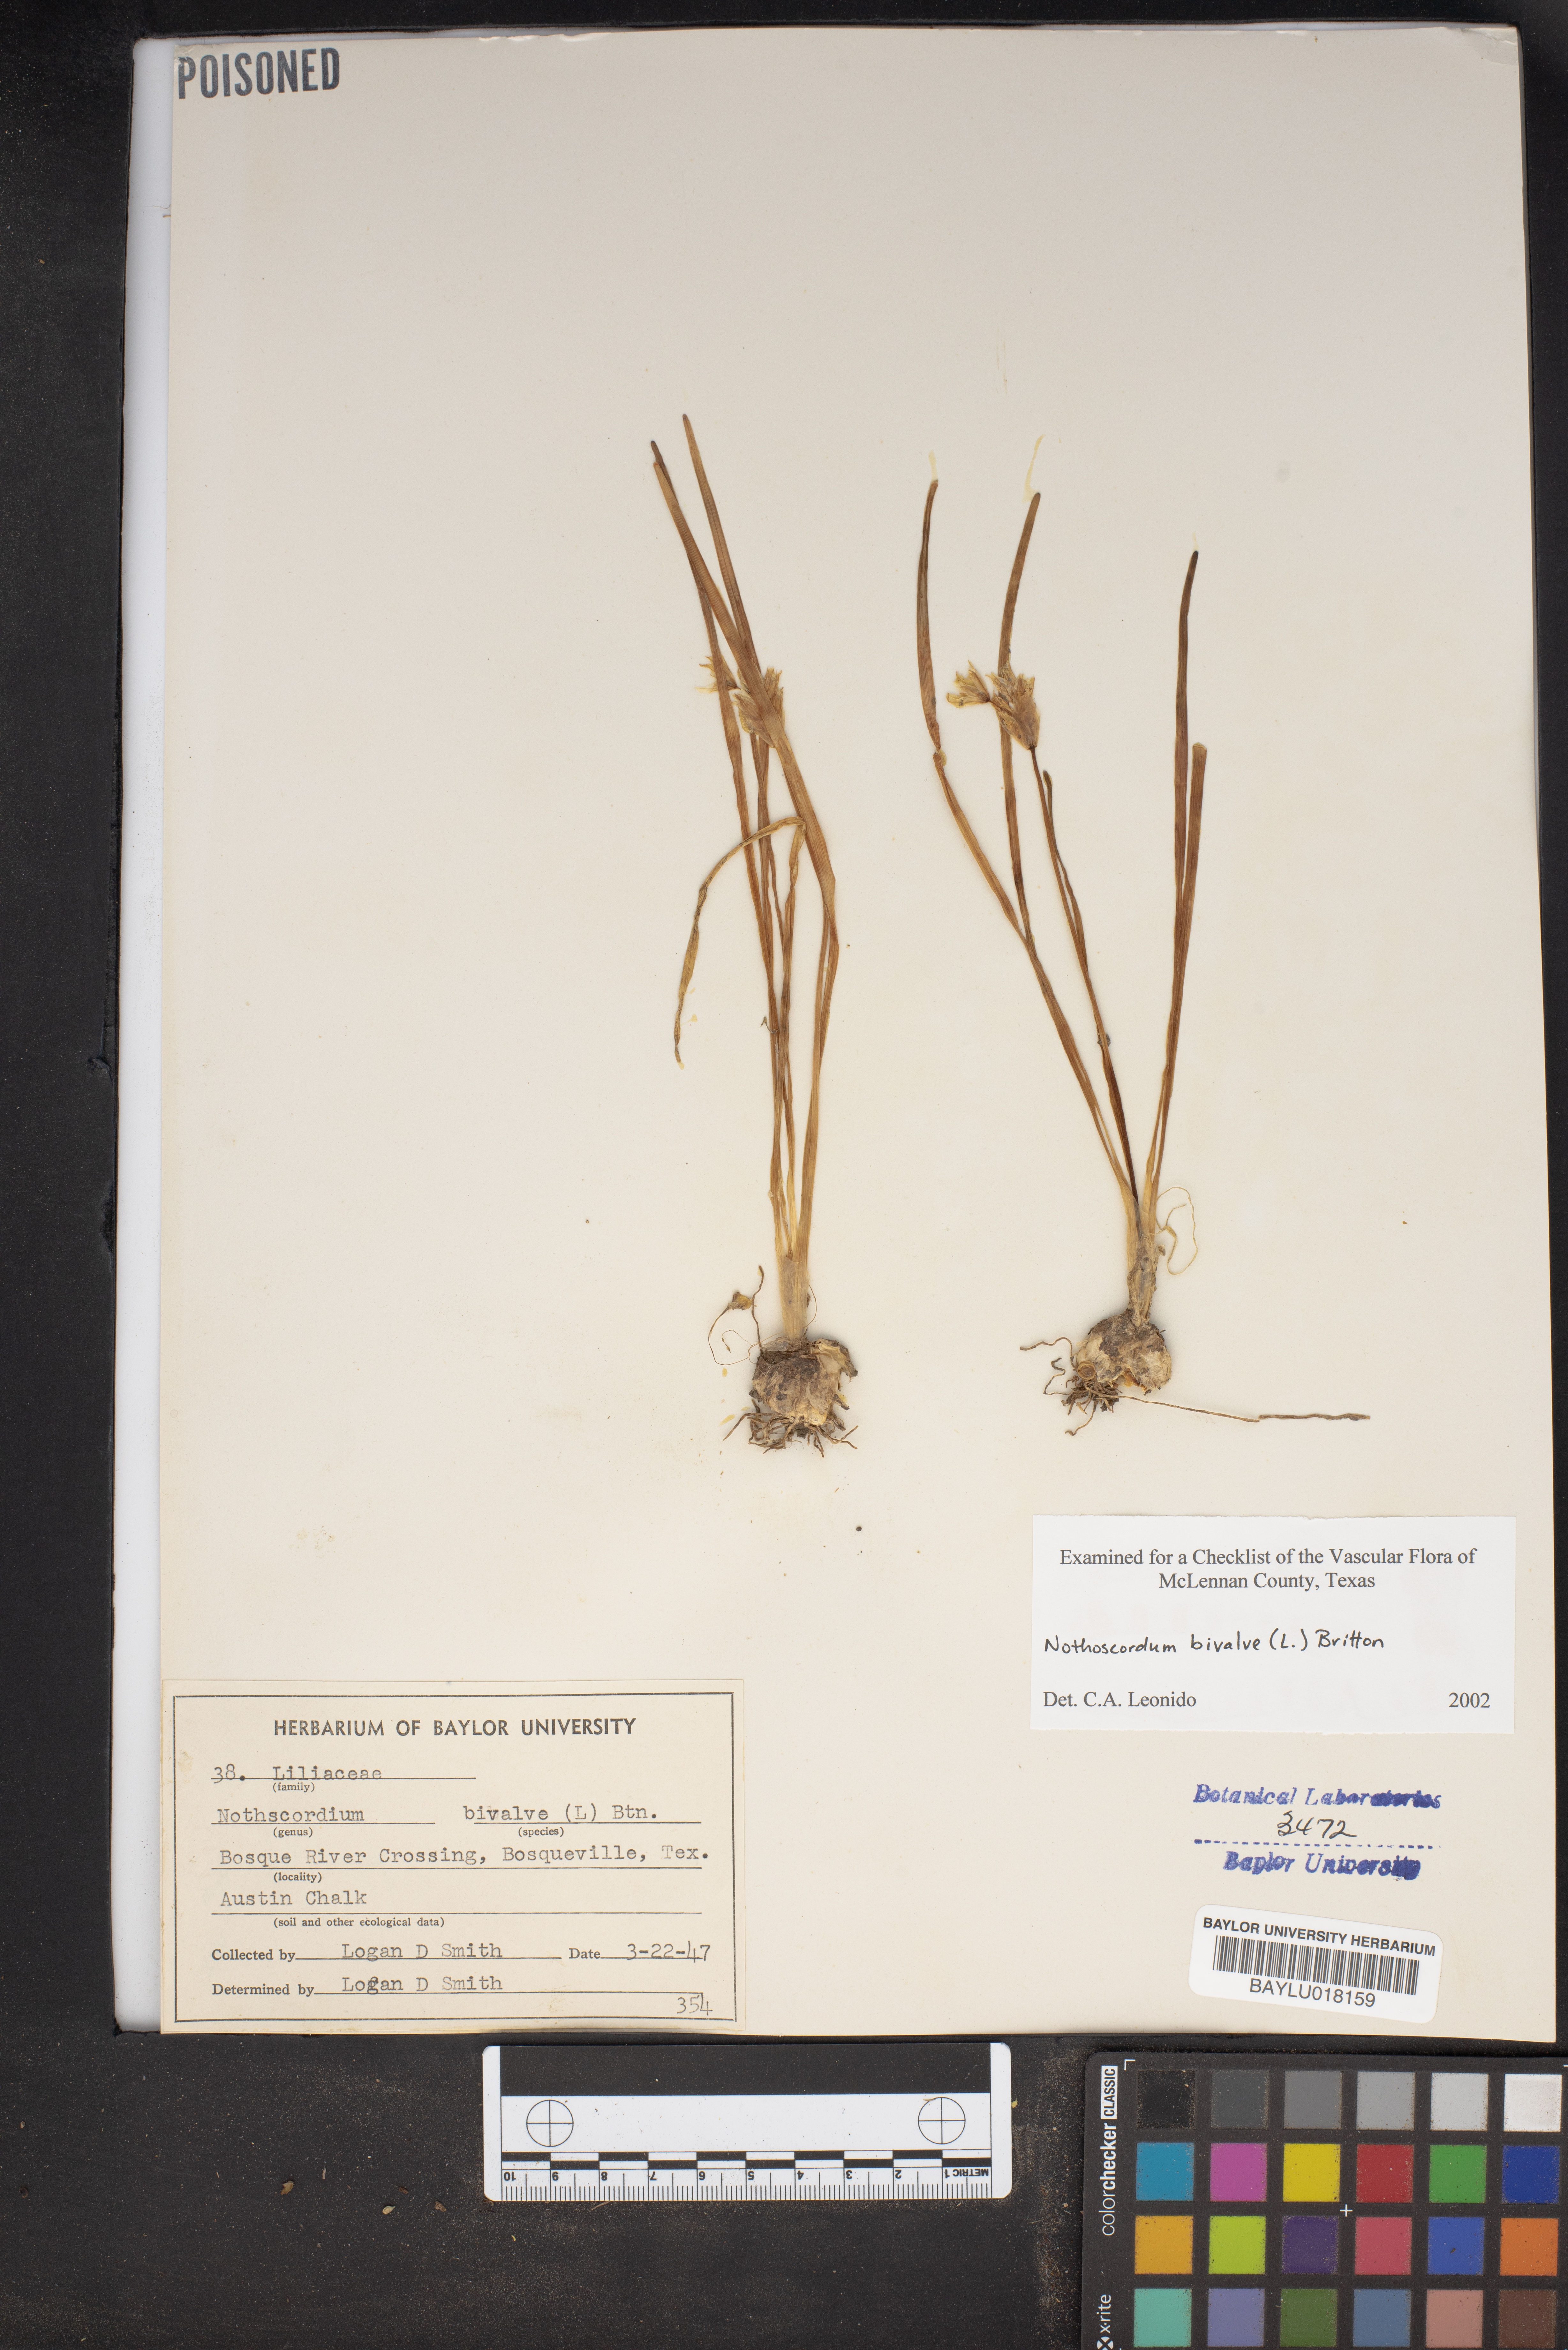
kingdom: Plantae
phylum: Tracheophyta
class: Liliopsida
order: Asparagales
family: Amaryllidaceae
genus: Nothoscordum
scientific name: Nothoscordum bivalve
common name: Crow-poison
